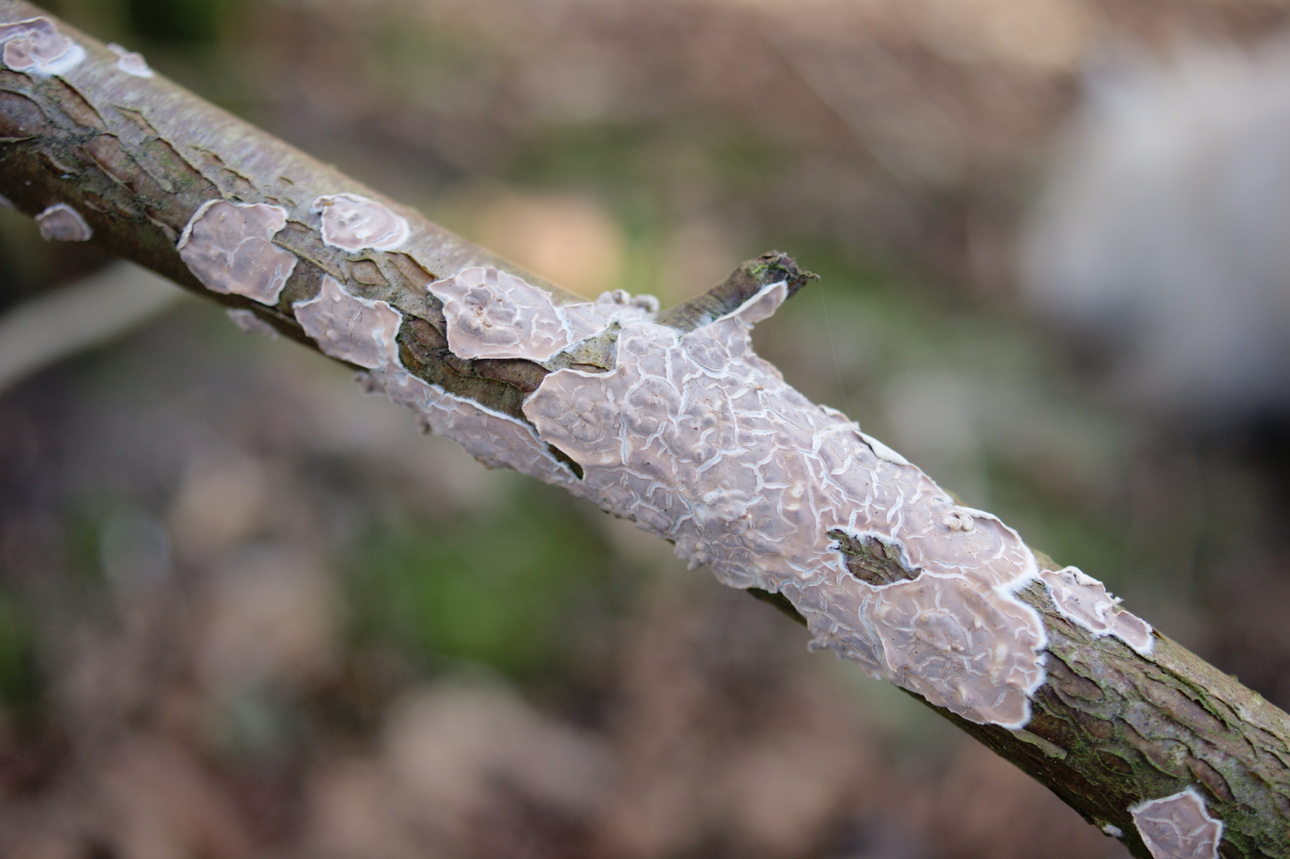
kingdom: Fungi
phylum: Basidiomycota
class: Agaricomycetes
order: Agaricales
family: Physalacriaceae
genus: Cylindrobasidium
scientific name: Cylindrobasidium evolvens
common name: sprækkehinde
